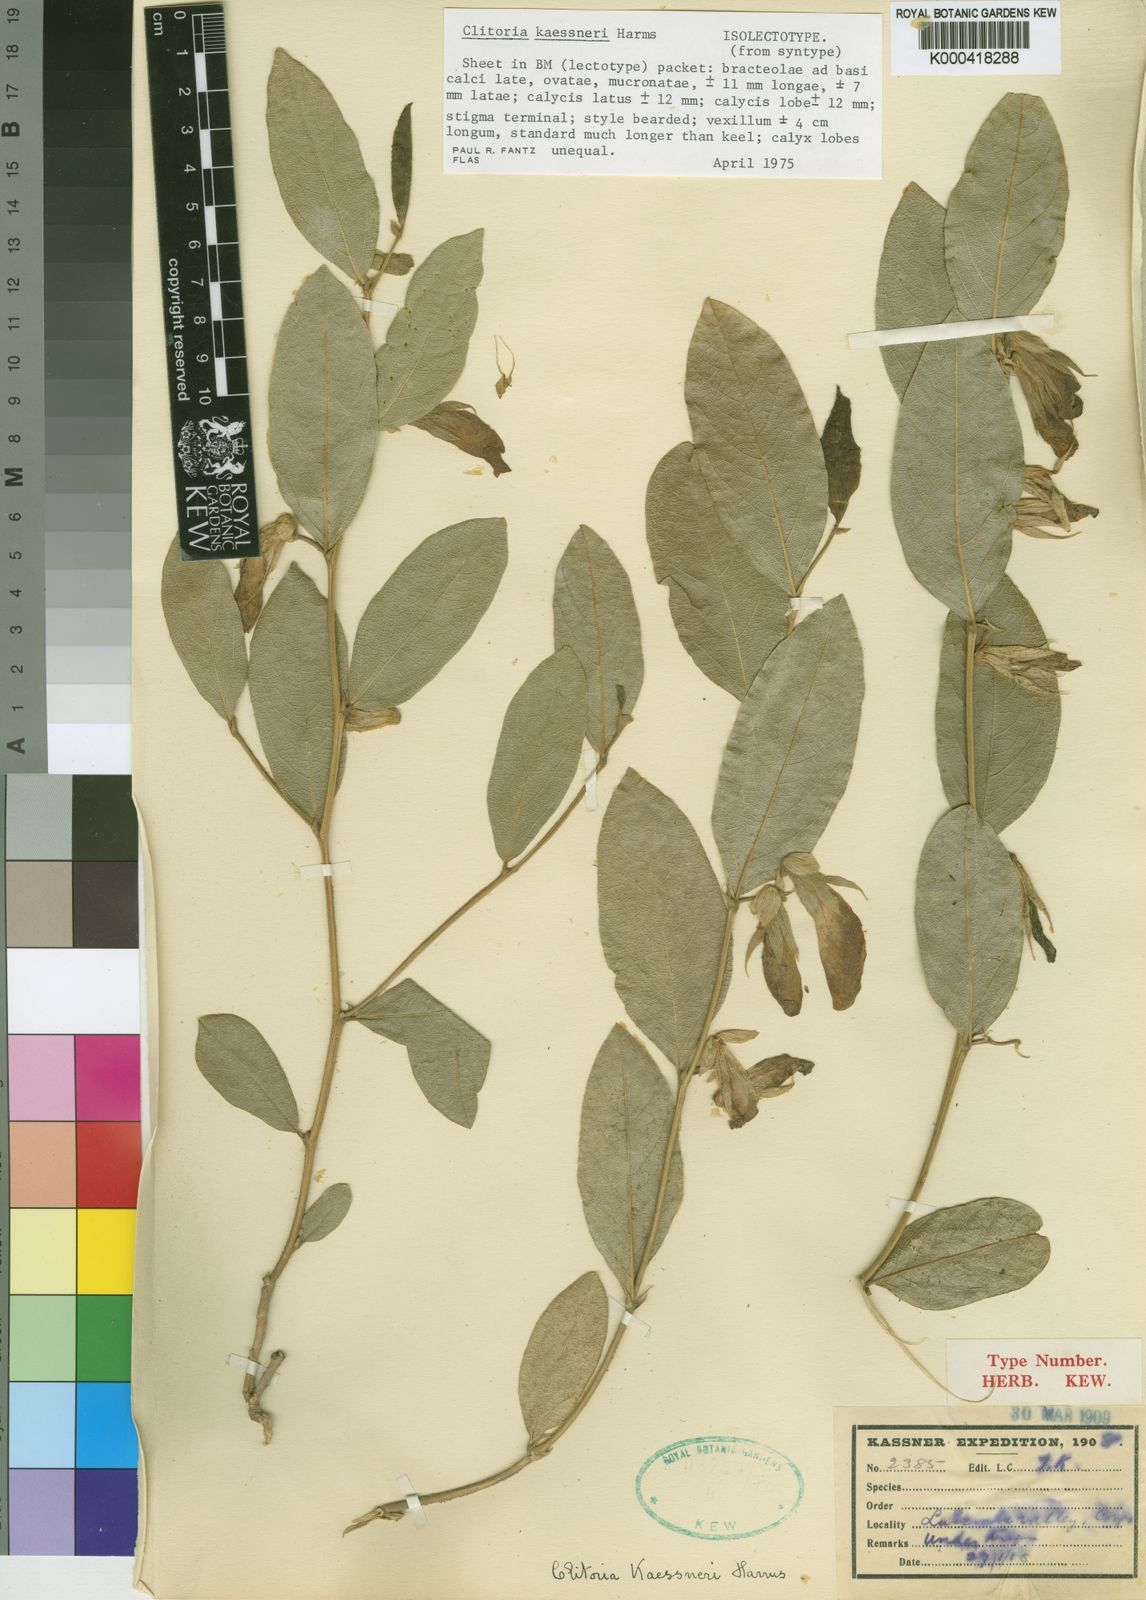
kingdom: Plantae
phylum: Tracheophyta
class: Magnoliopsida
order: Fabales
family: Fabaceae
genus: Clitoria
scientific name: Clitoria kaessneri
